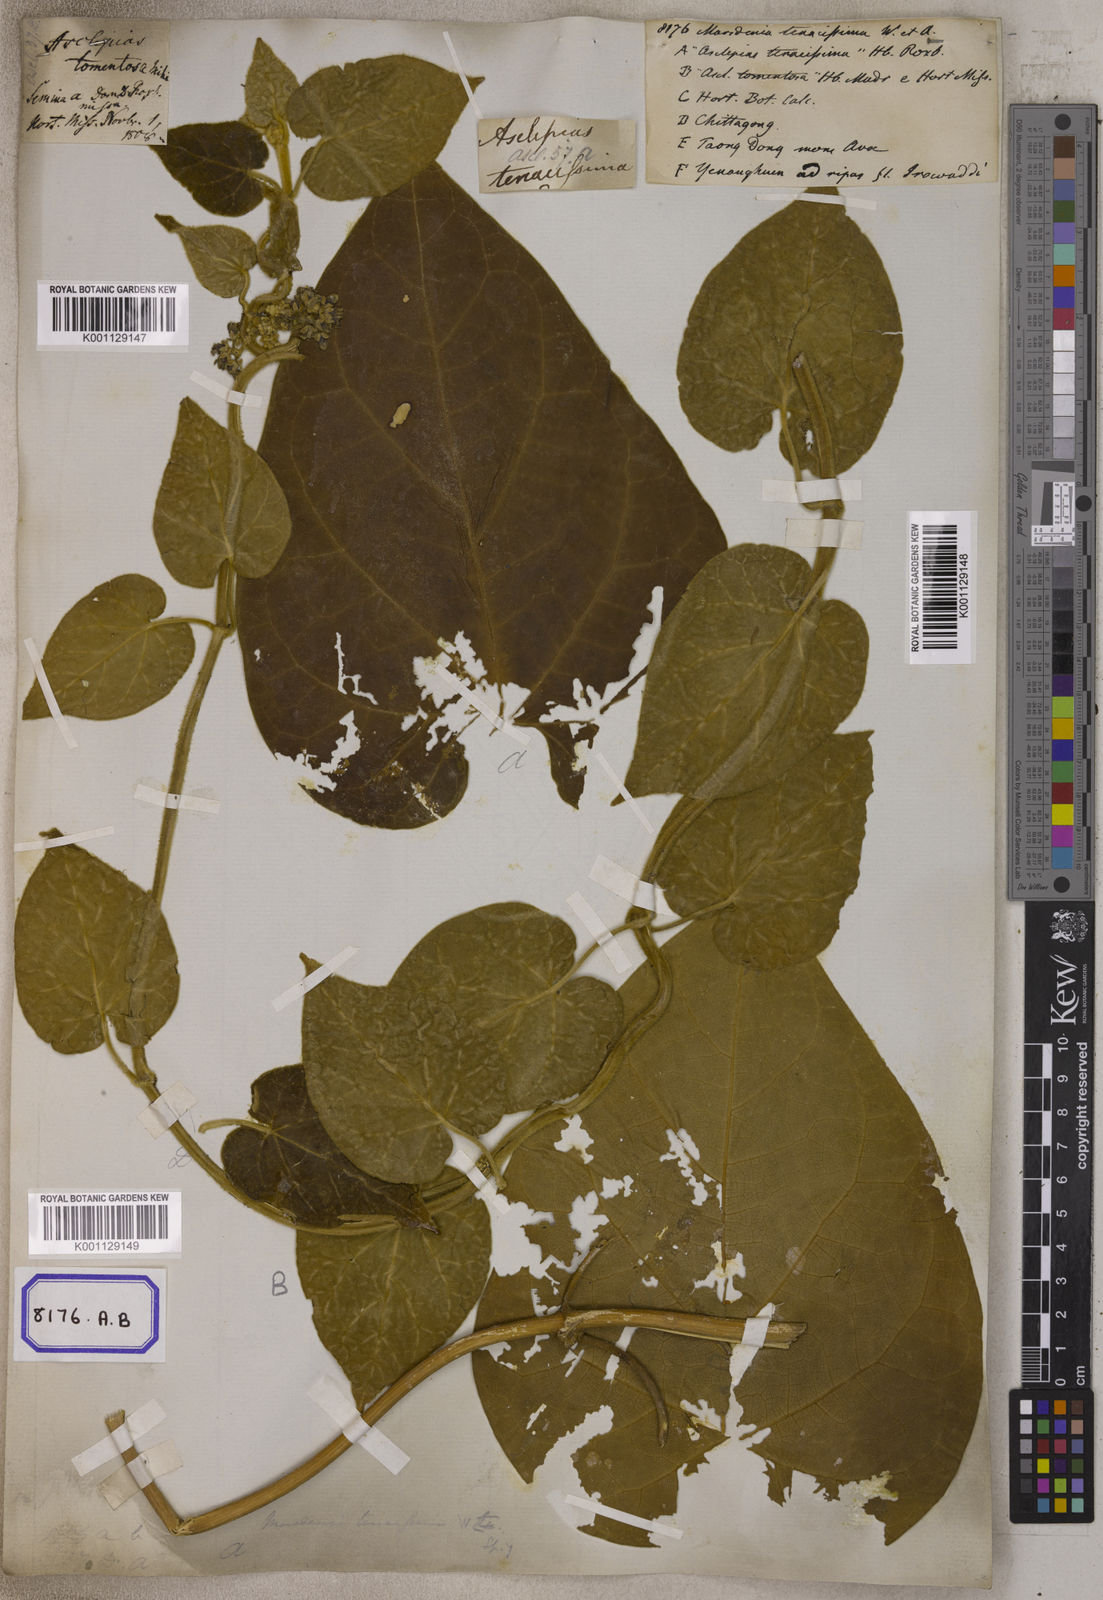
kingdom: Plantae
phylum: Tracheophyta
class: Magnoliopsida
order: Gentianales
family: Apocynaceae
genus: Marsdenia
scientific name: Marsdenia
